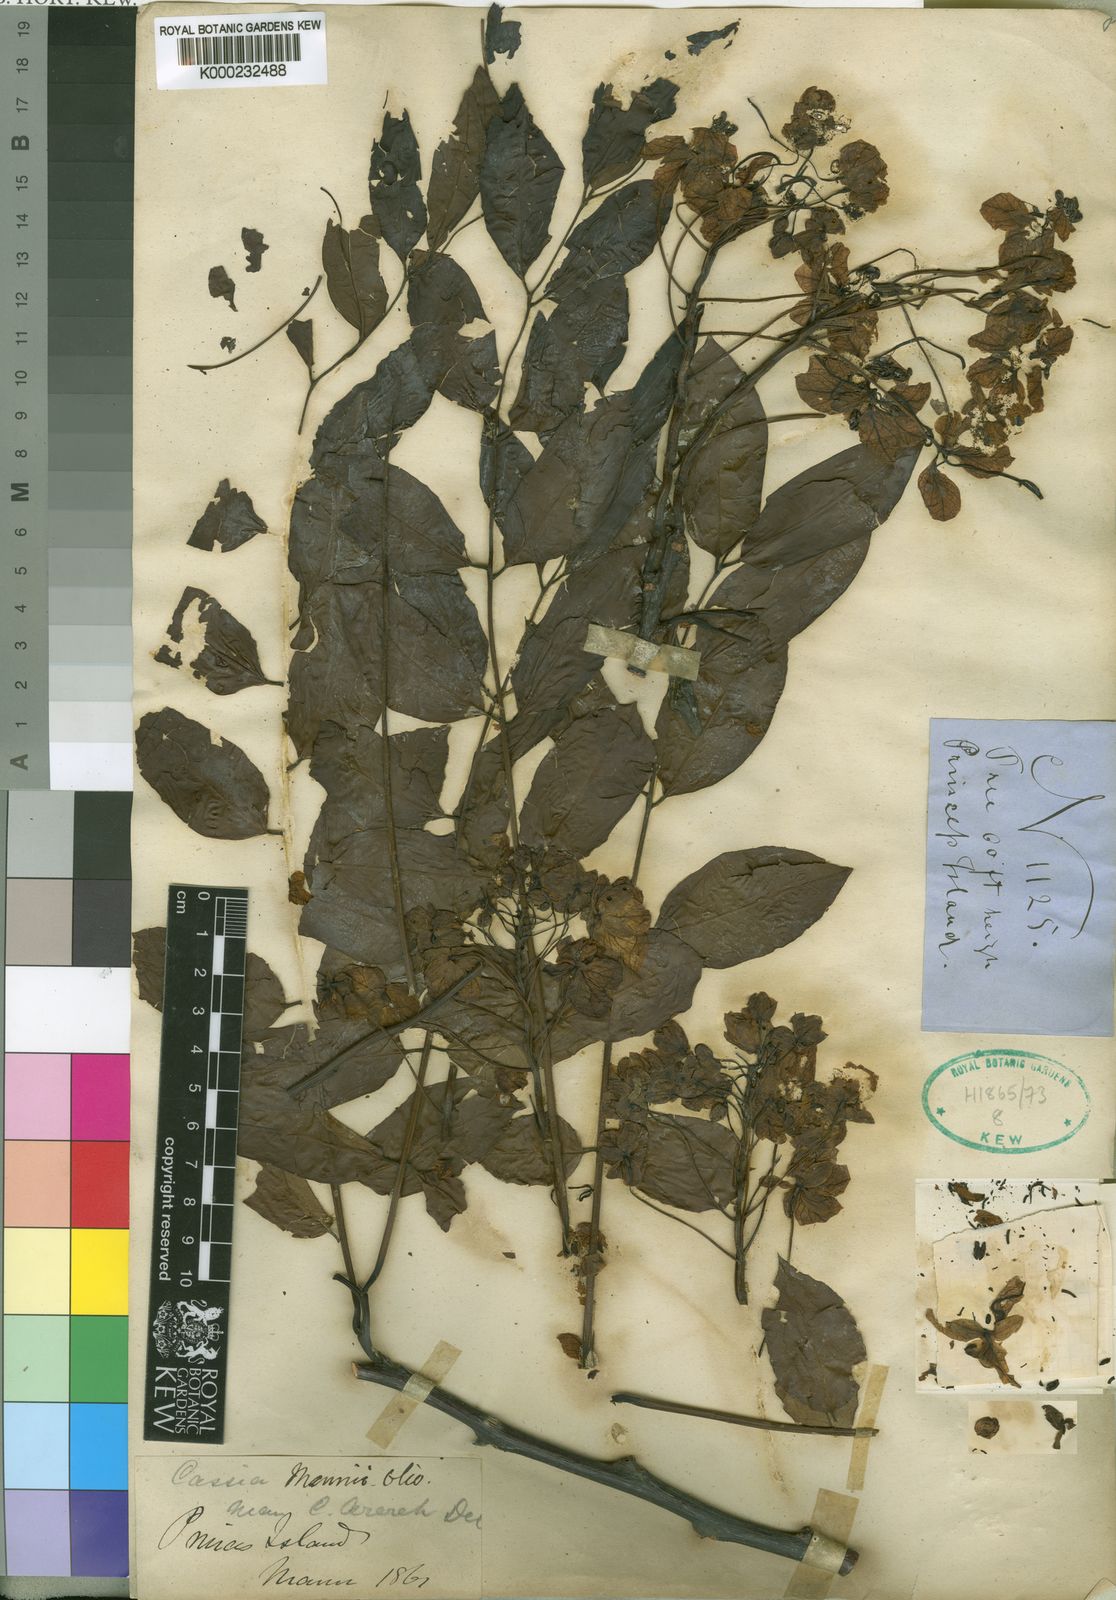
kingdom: Plantae
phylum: Tracheophyta
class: Magnoliopsida
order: Fabales
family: Fabaceae
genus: Cassia
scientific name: Cassia mannii
